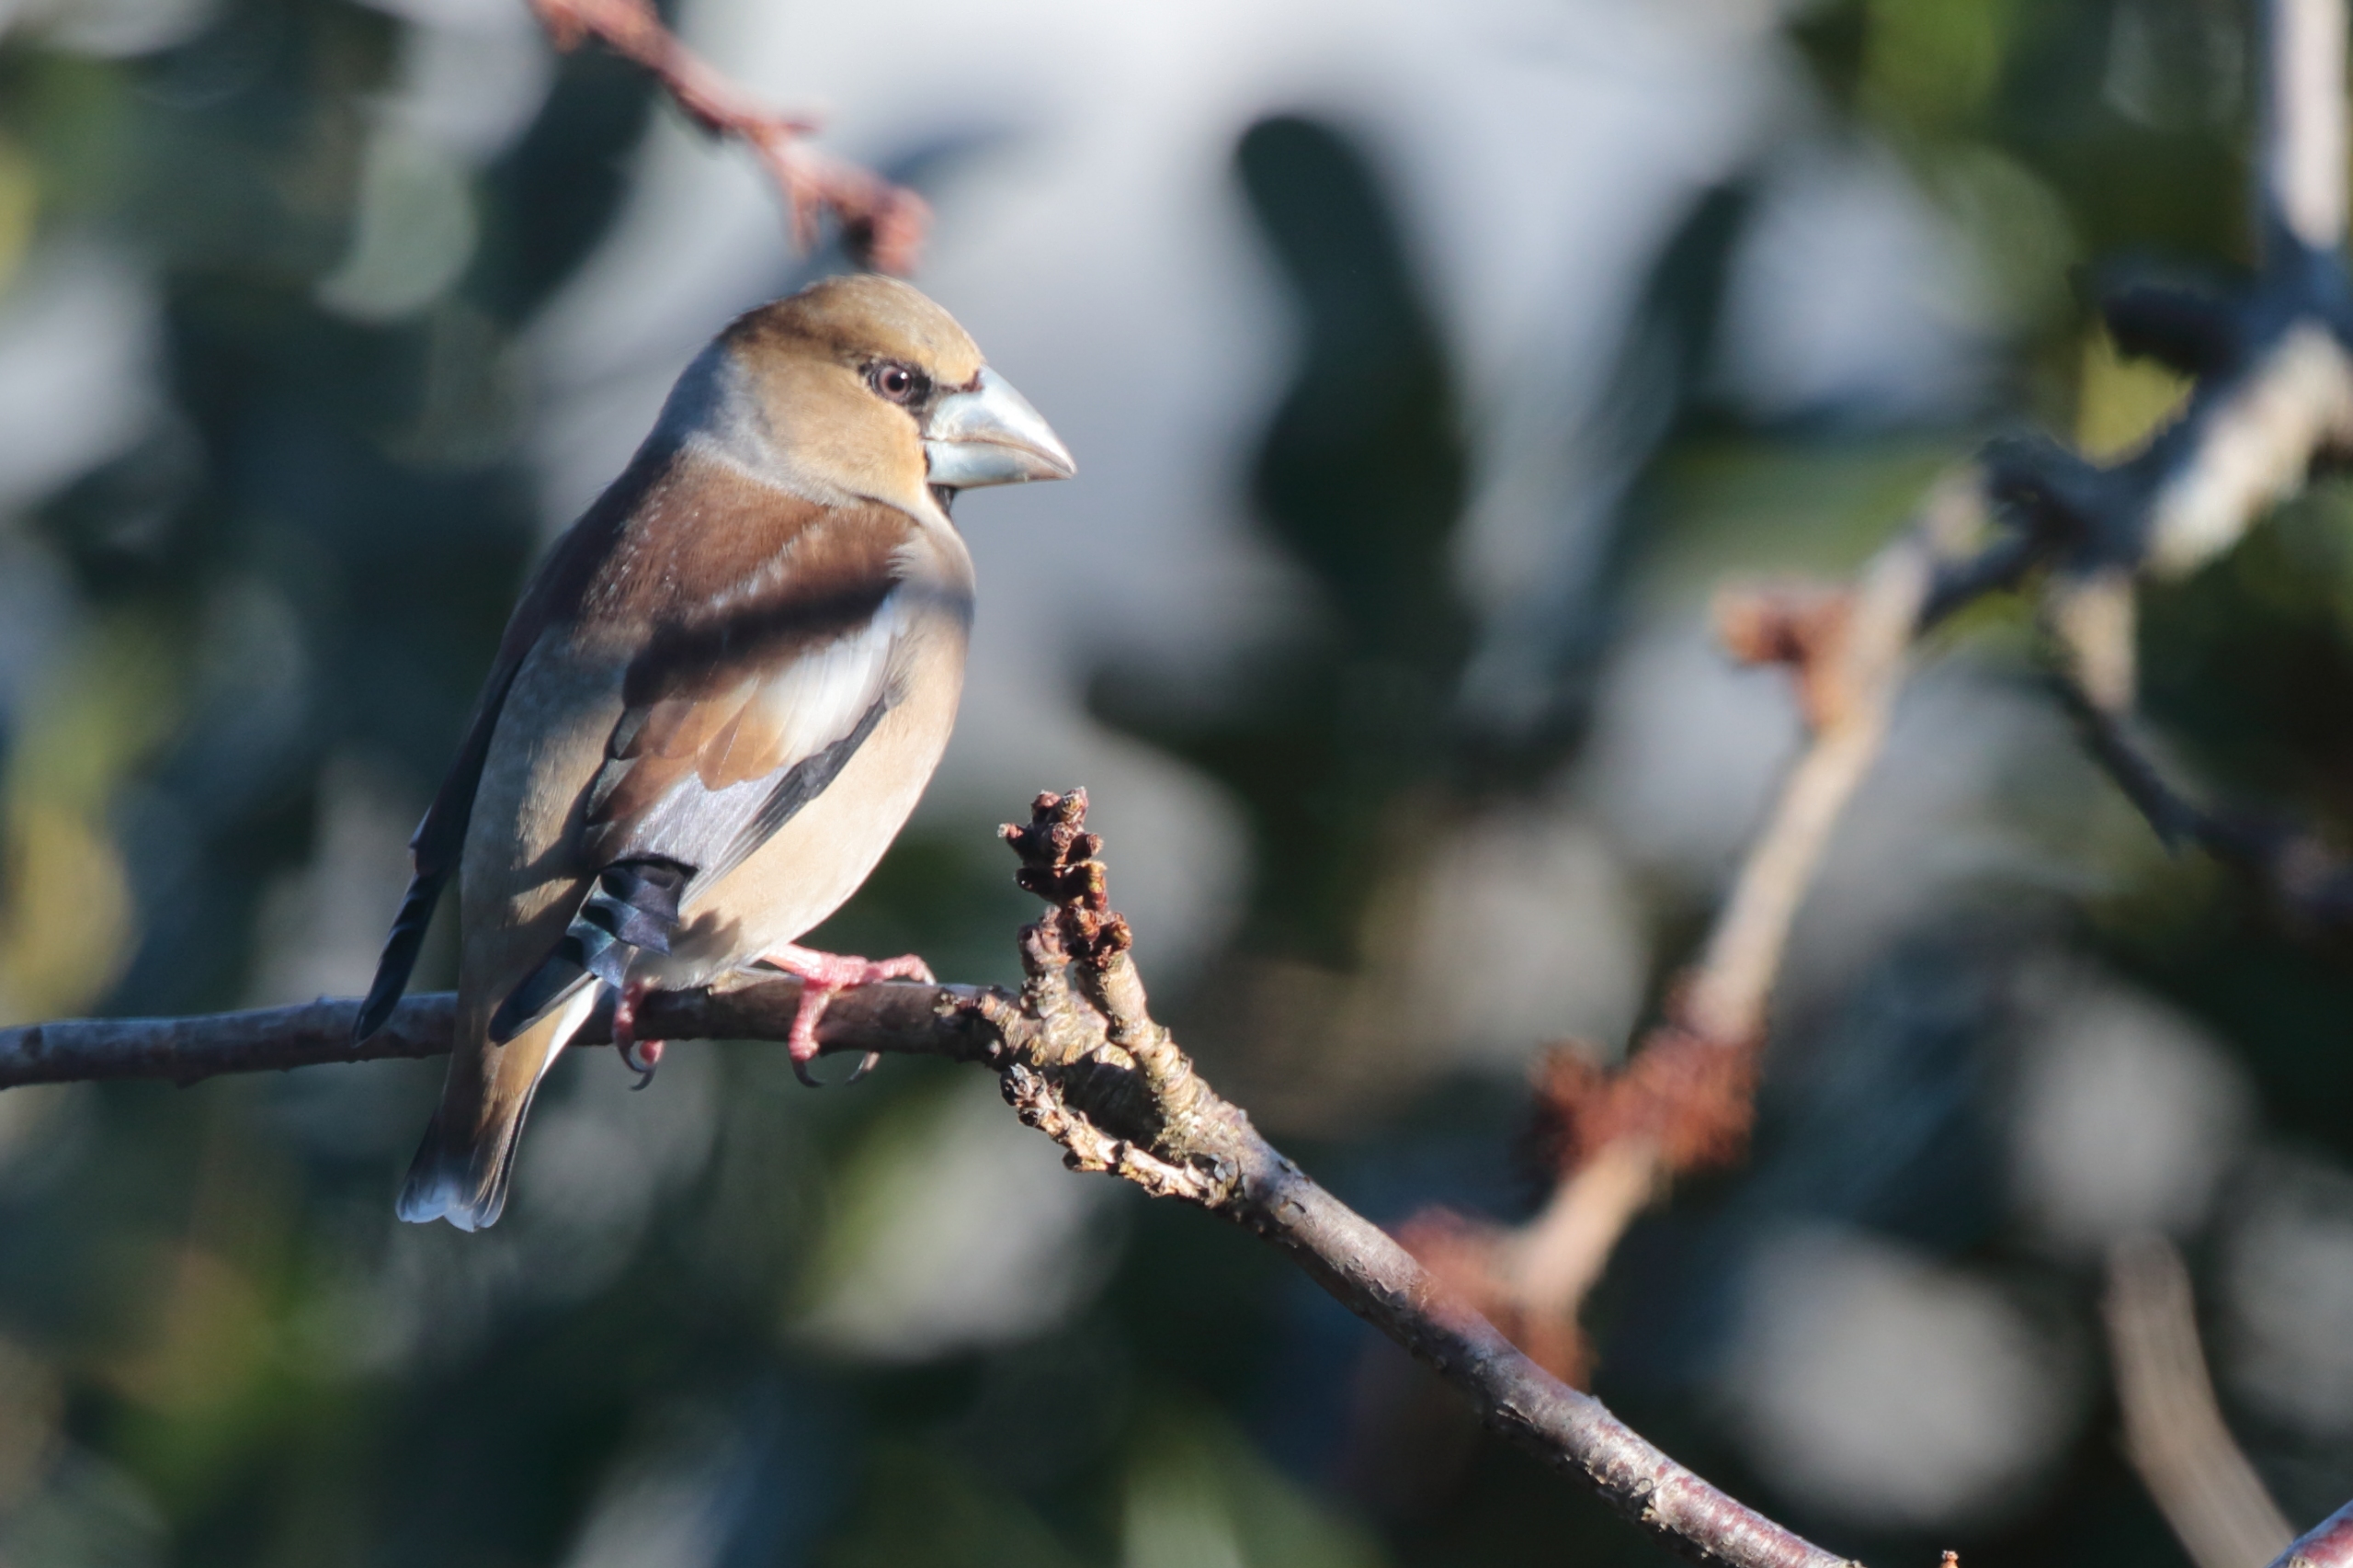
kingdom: Animalia
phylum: Chordata
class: Aves
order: Passeriformes
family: Fringillidae
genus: Coccothraustes
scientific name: Coccothraustes coccothraustes
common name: Kernebider
